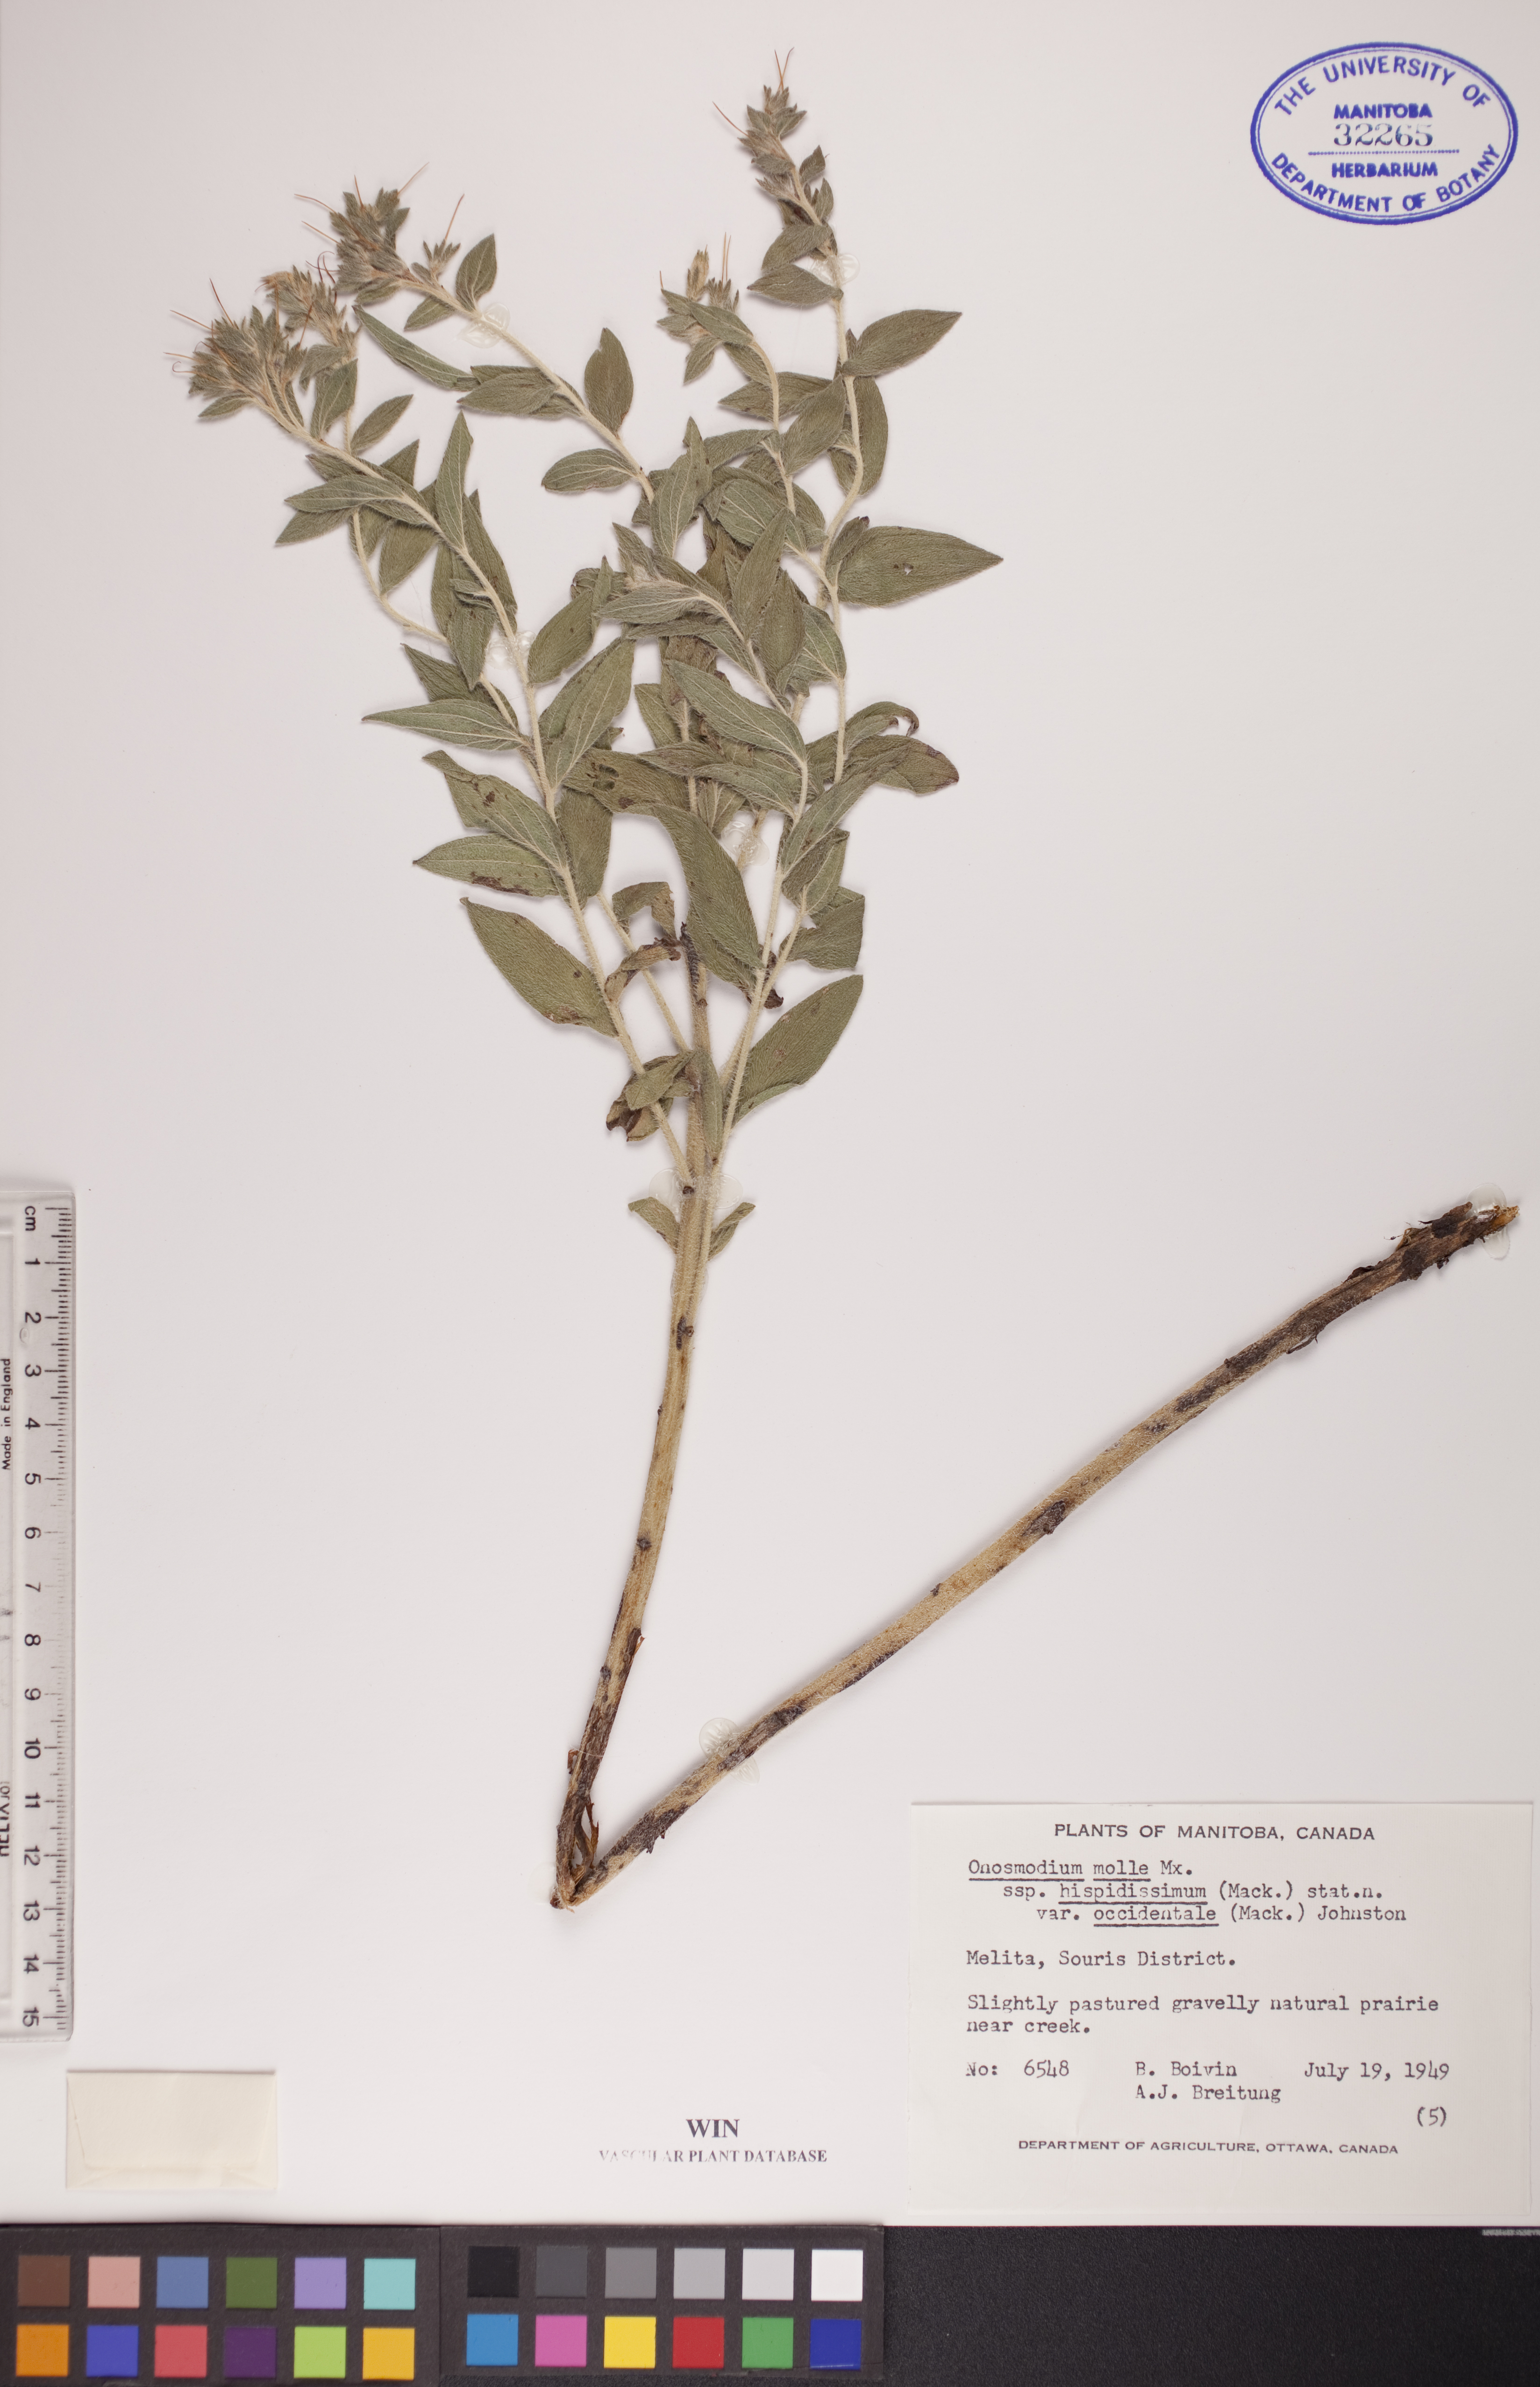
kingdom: Plantae
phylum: Tracheophyta
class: Magnoliopsida
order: Boraginales
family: Boraginaceae
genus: Lithospermum
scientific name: Lithospermum occidentale
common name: Western false gromwell
